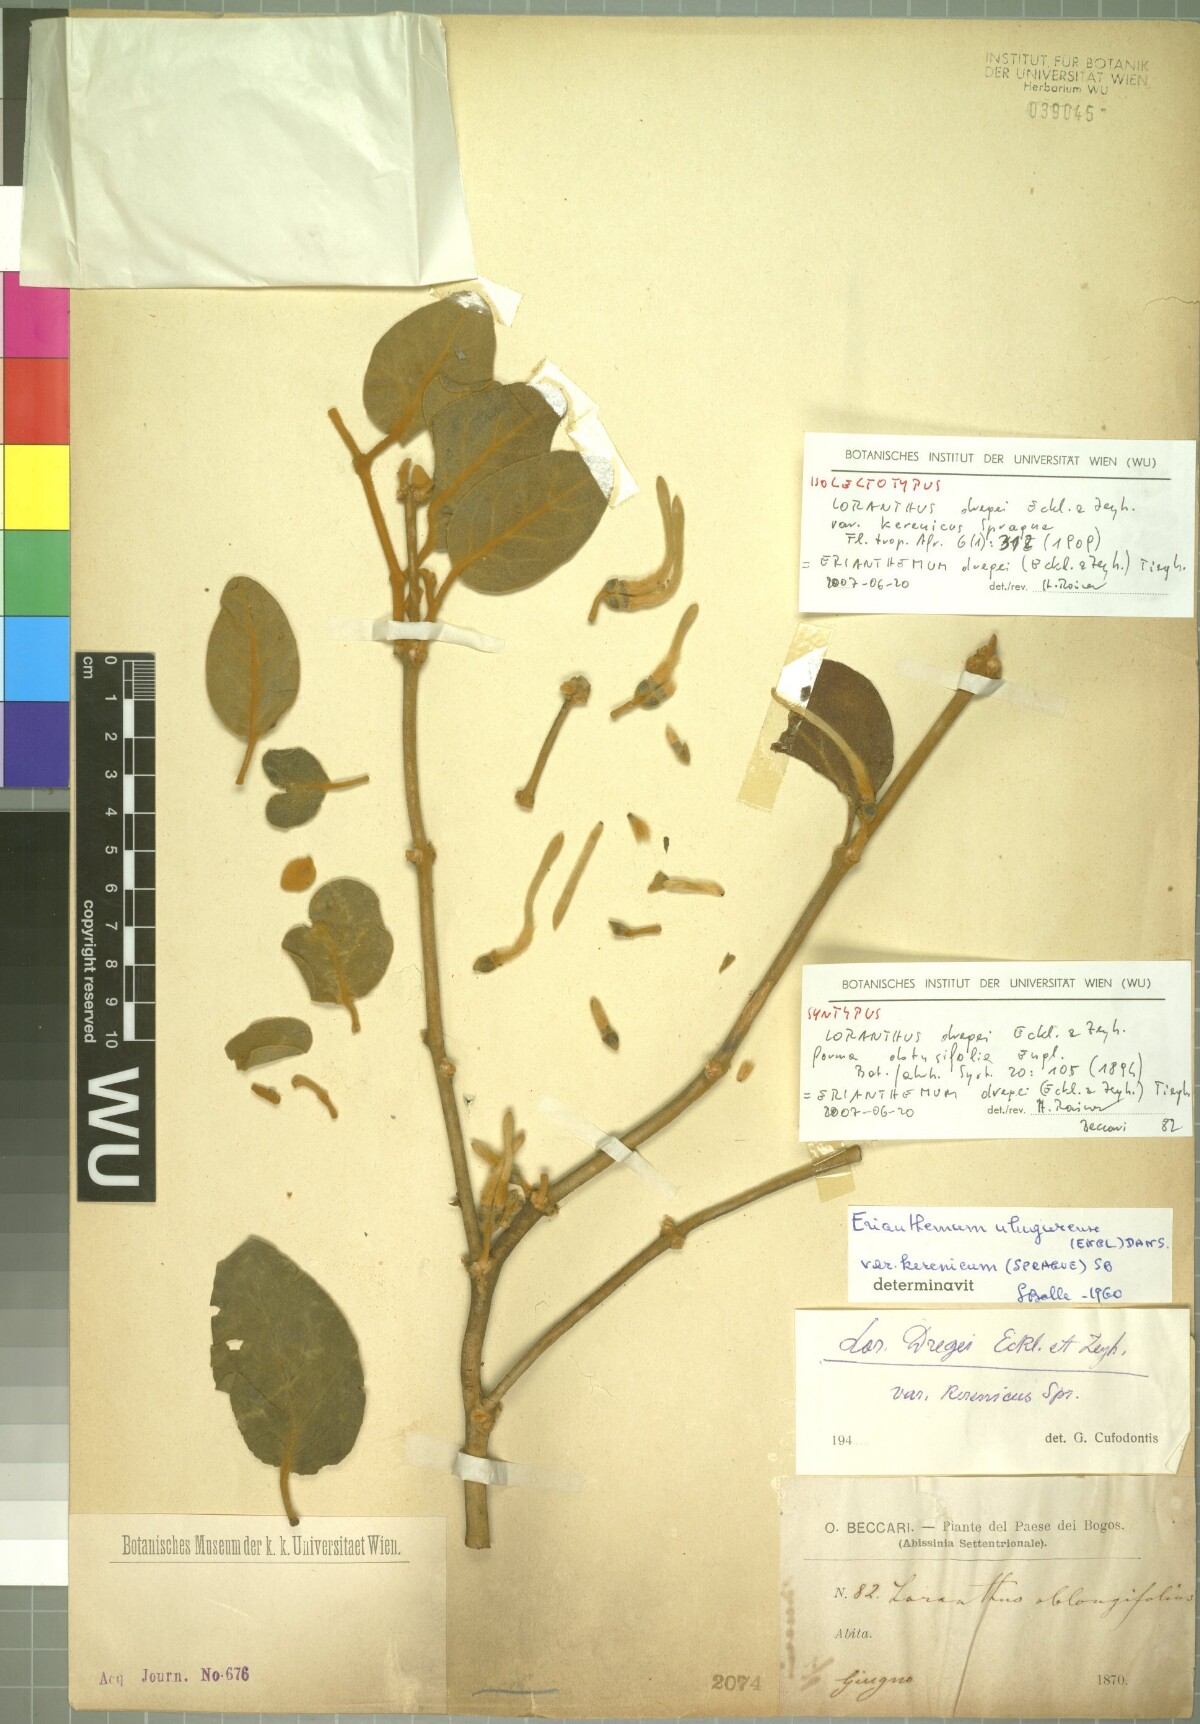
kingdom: Plantae
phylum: Tracheophyta
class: Magnoliopsida
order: Santalales
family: Loranthaceae
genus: Erianthemum
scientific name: Erianthemum dregei
